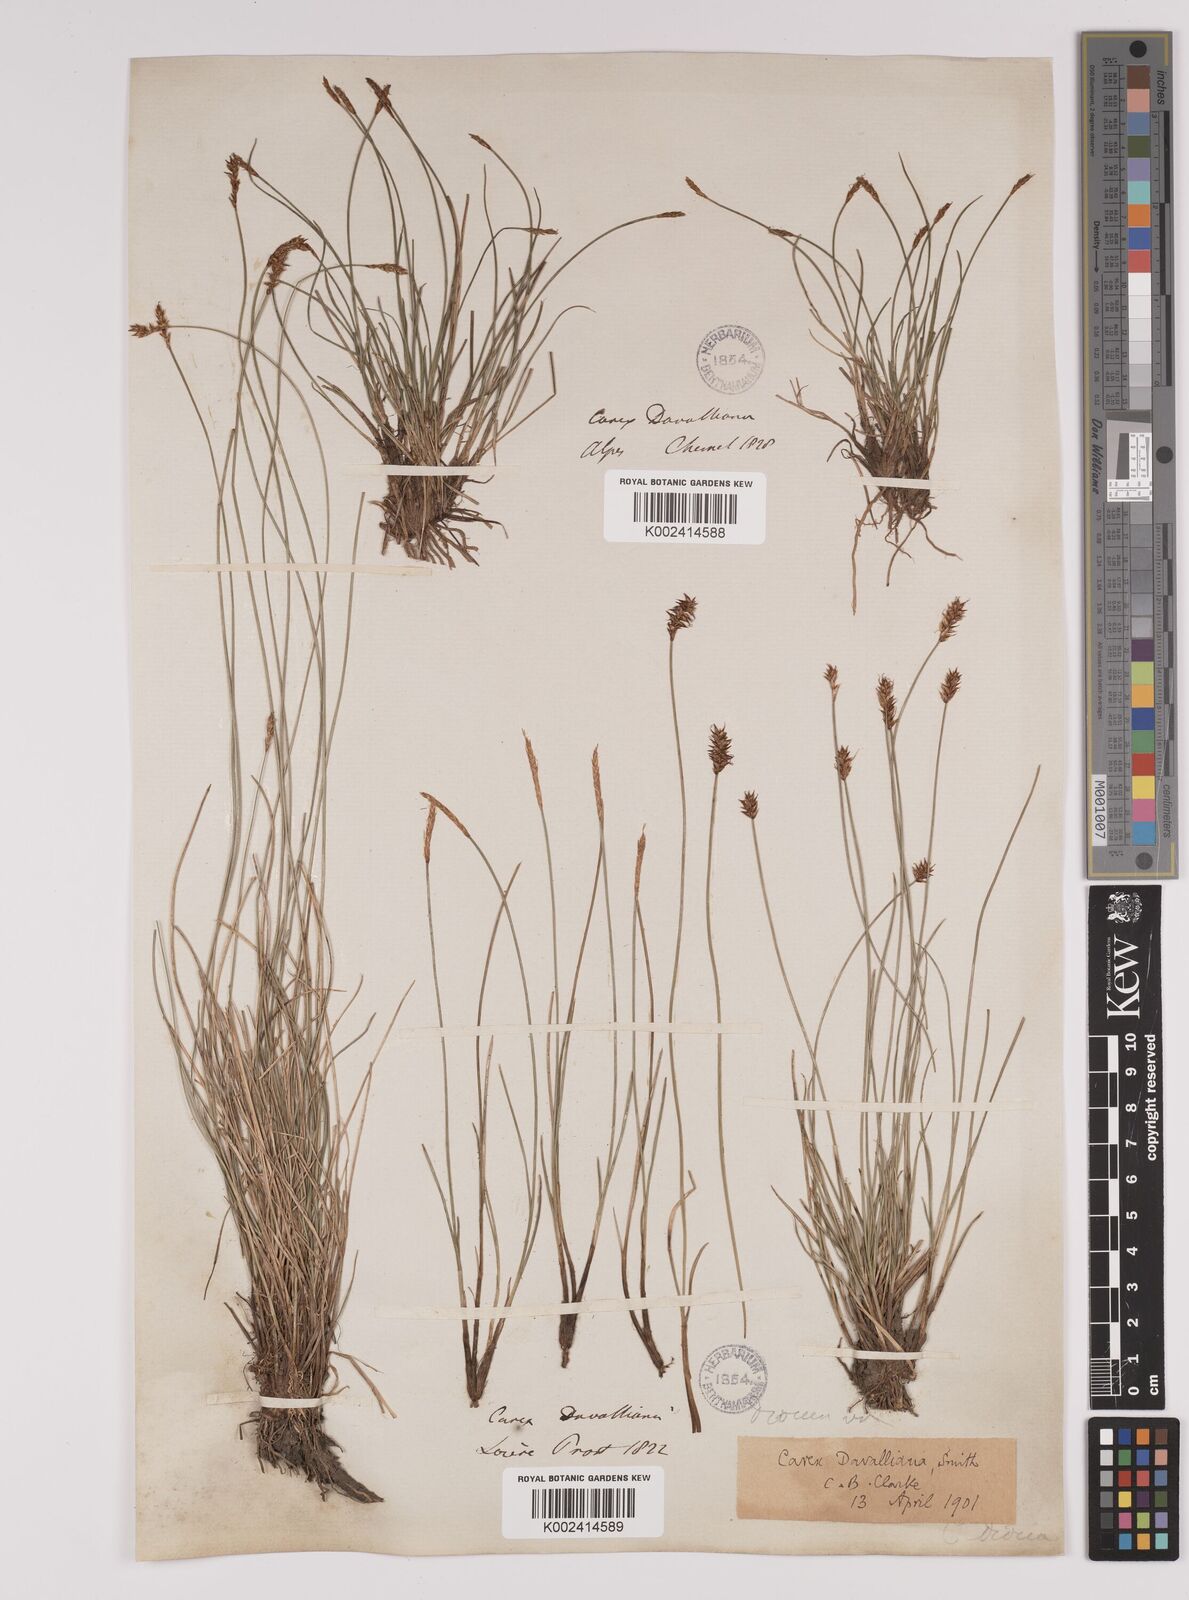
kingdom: Plantae
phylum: Tracheophyta
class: Liliopsida
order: Poales
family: Cyperaceae
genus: Carex
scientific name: Carex davalliana
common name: Davall's sedge
